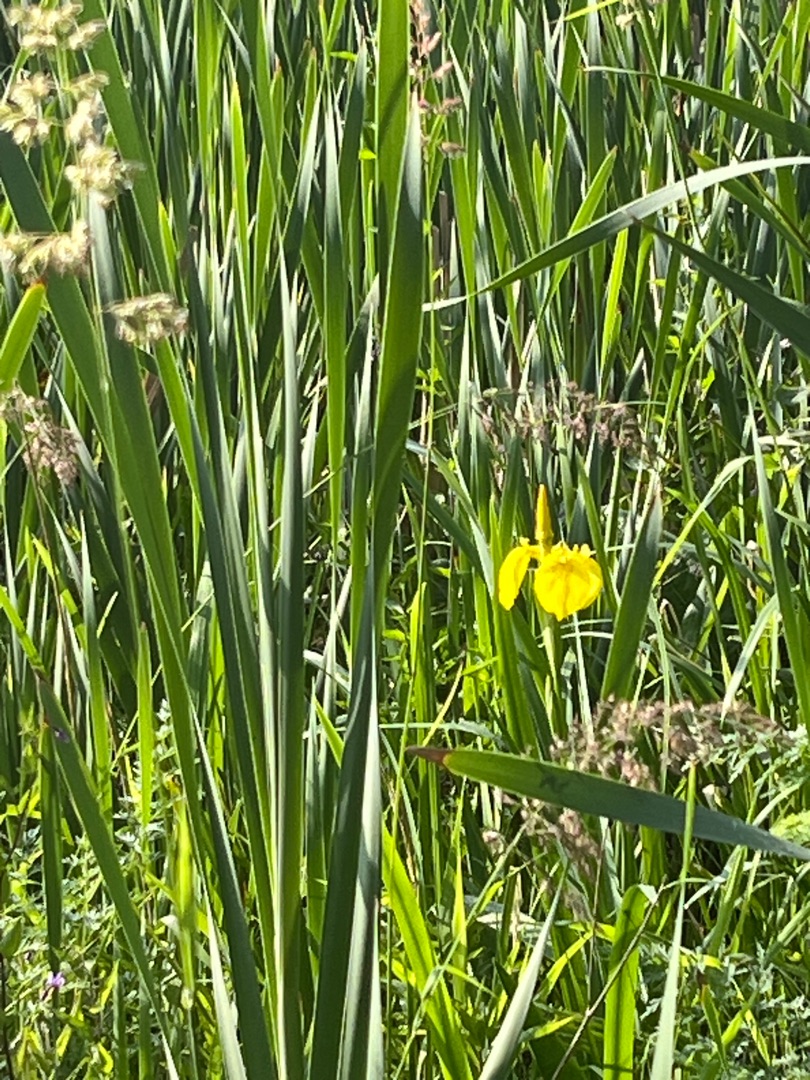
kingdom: Plantae
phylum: Tracheophyta
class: Liliopsida
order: Asparagales
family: Iridaceae
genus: Iris
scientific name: Iris pseudacorus
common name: Gul iris
